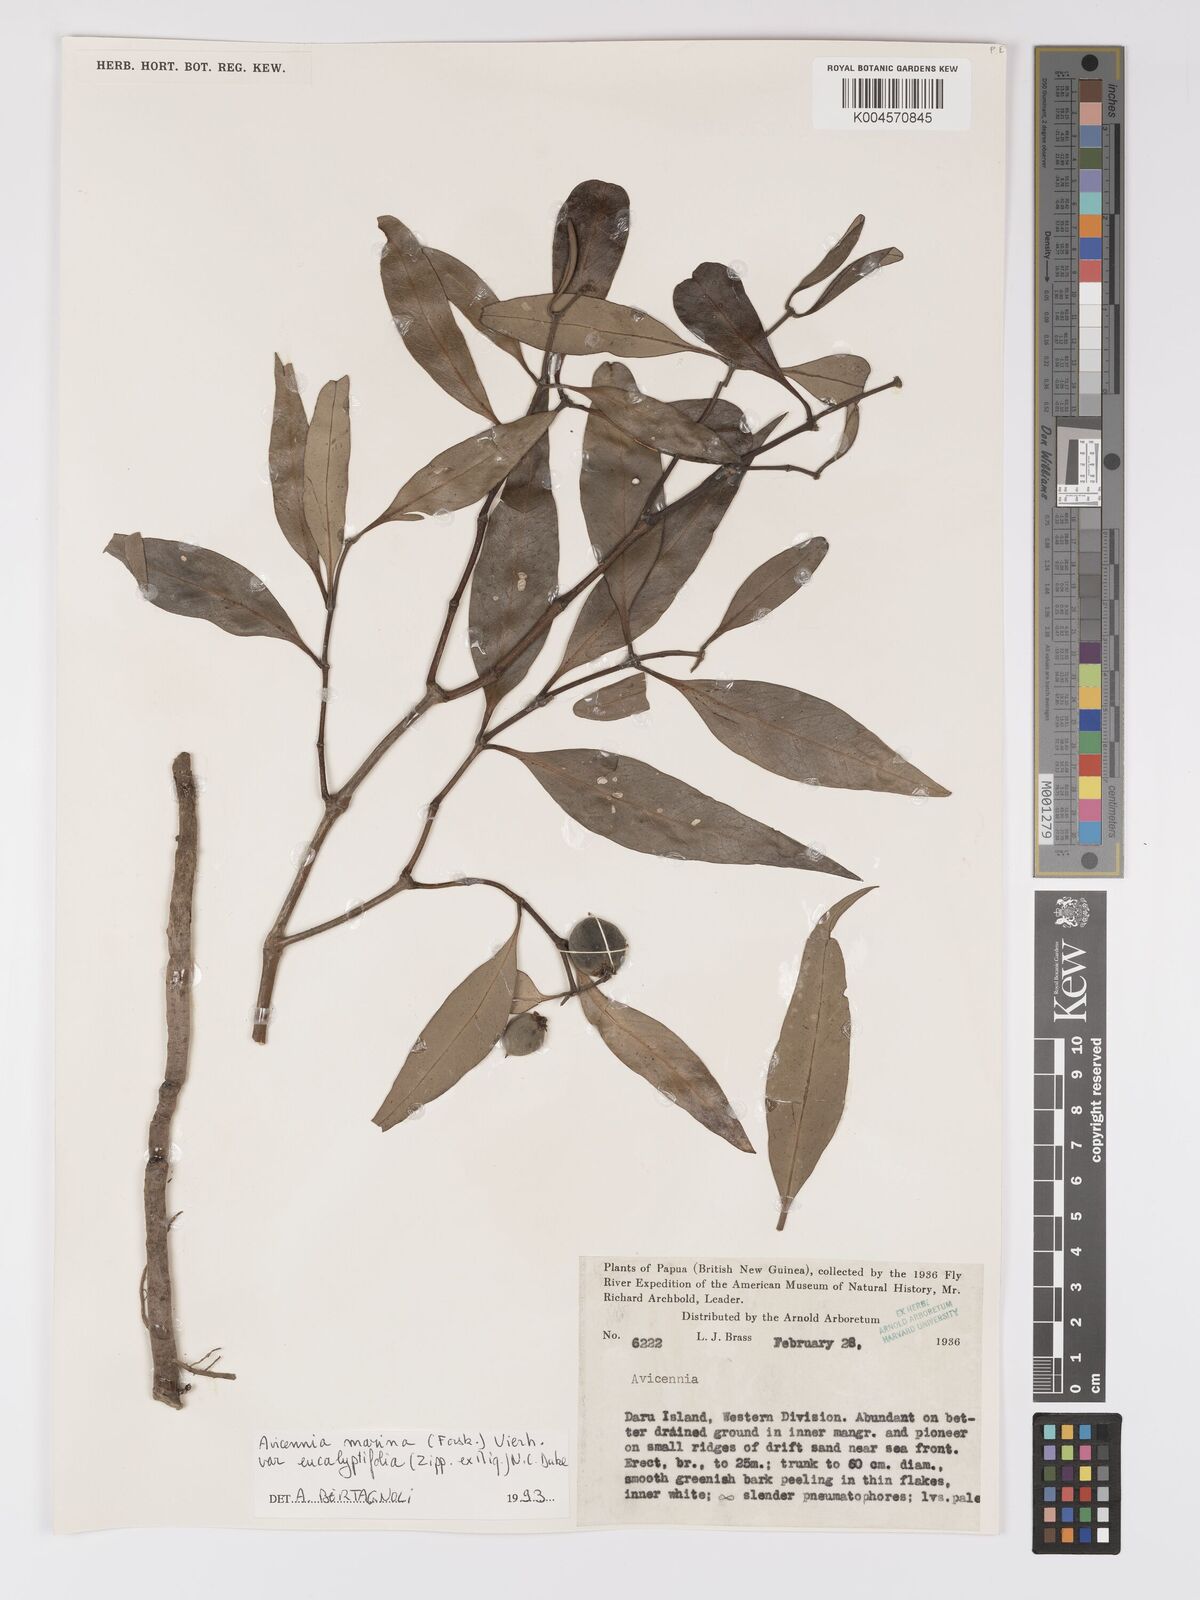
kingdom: Plantae
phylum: Tracheophyta
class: Magnoliopsida
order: Lamiales
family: Acanthaceae
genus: Avicennia
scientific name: Avicennia marina
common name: Gray mangrove
